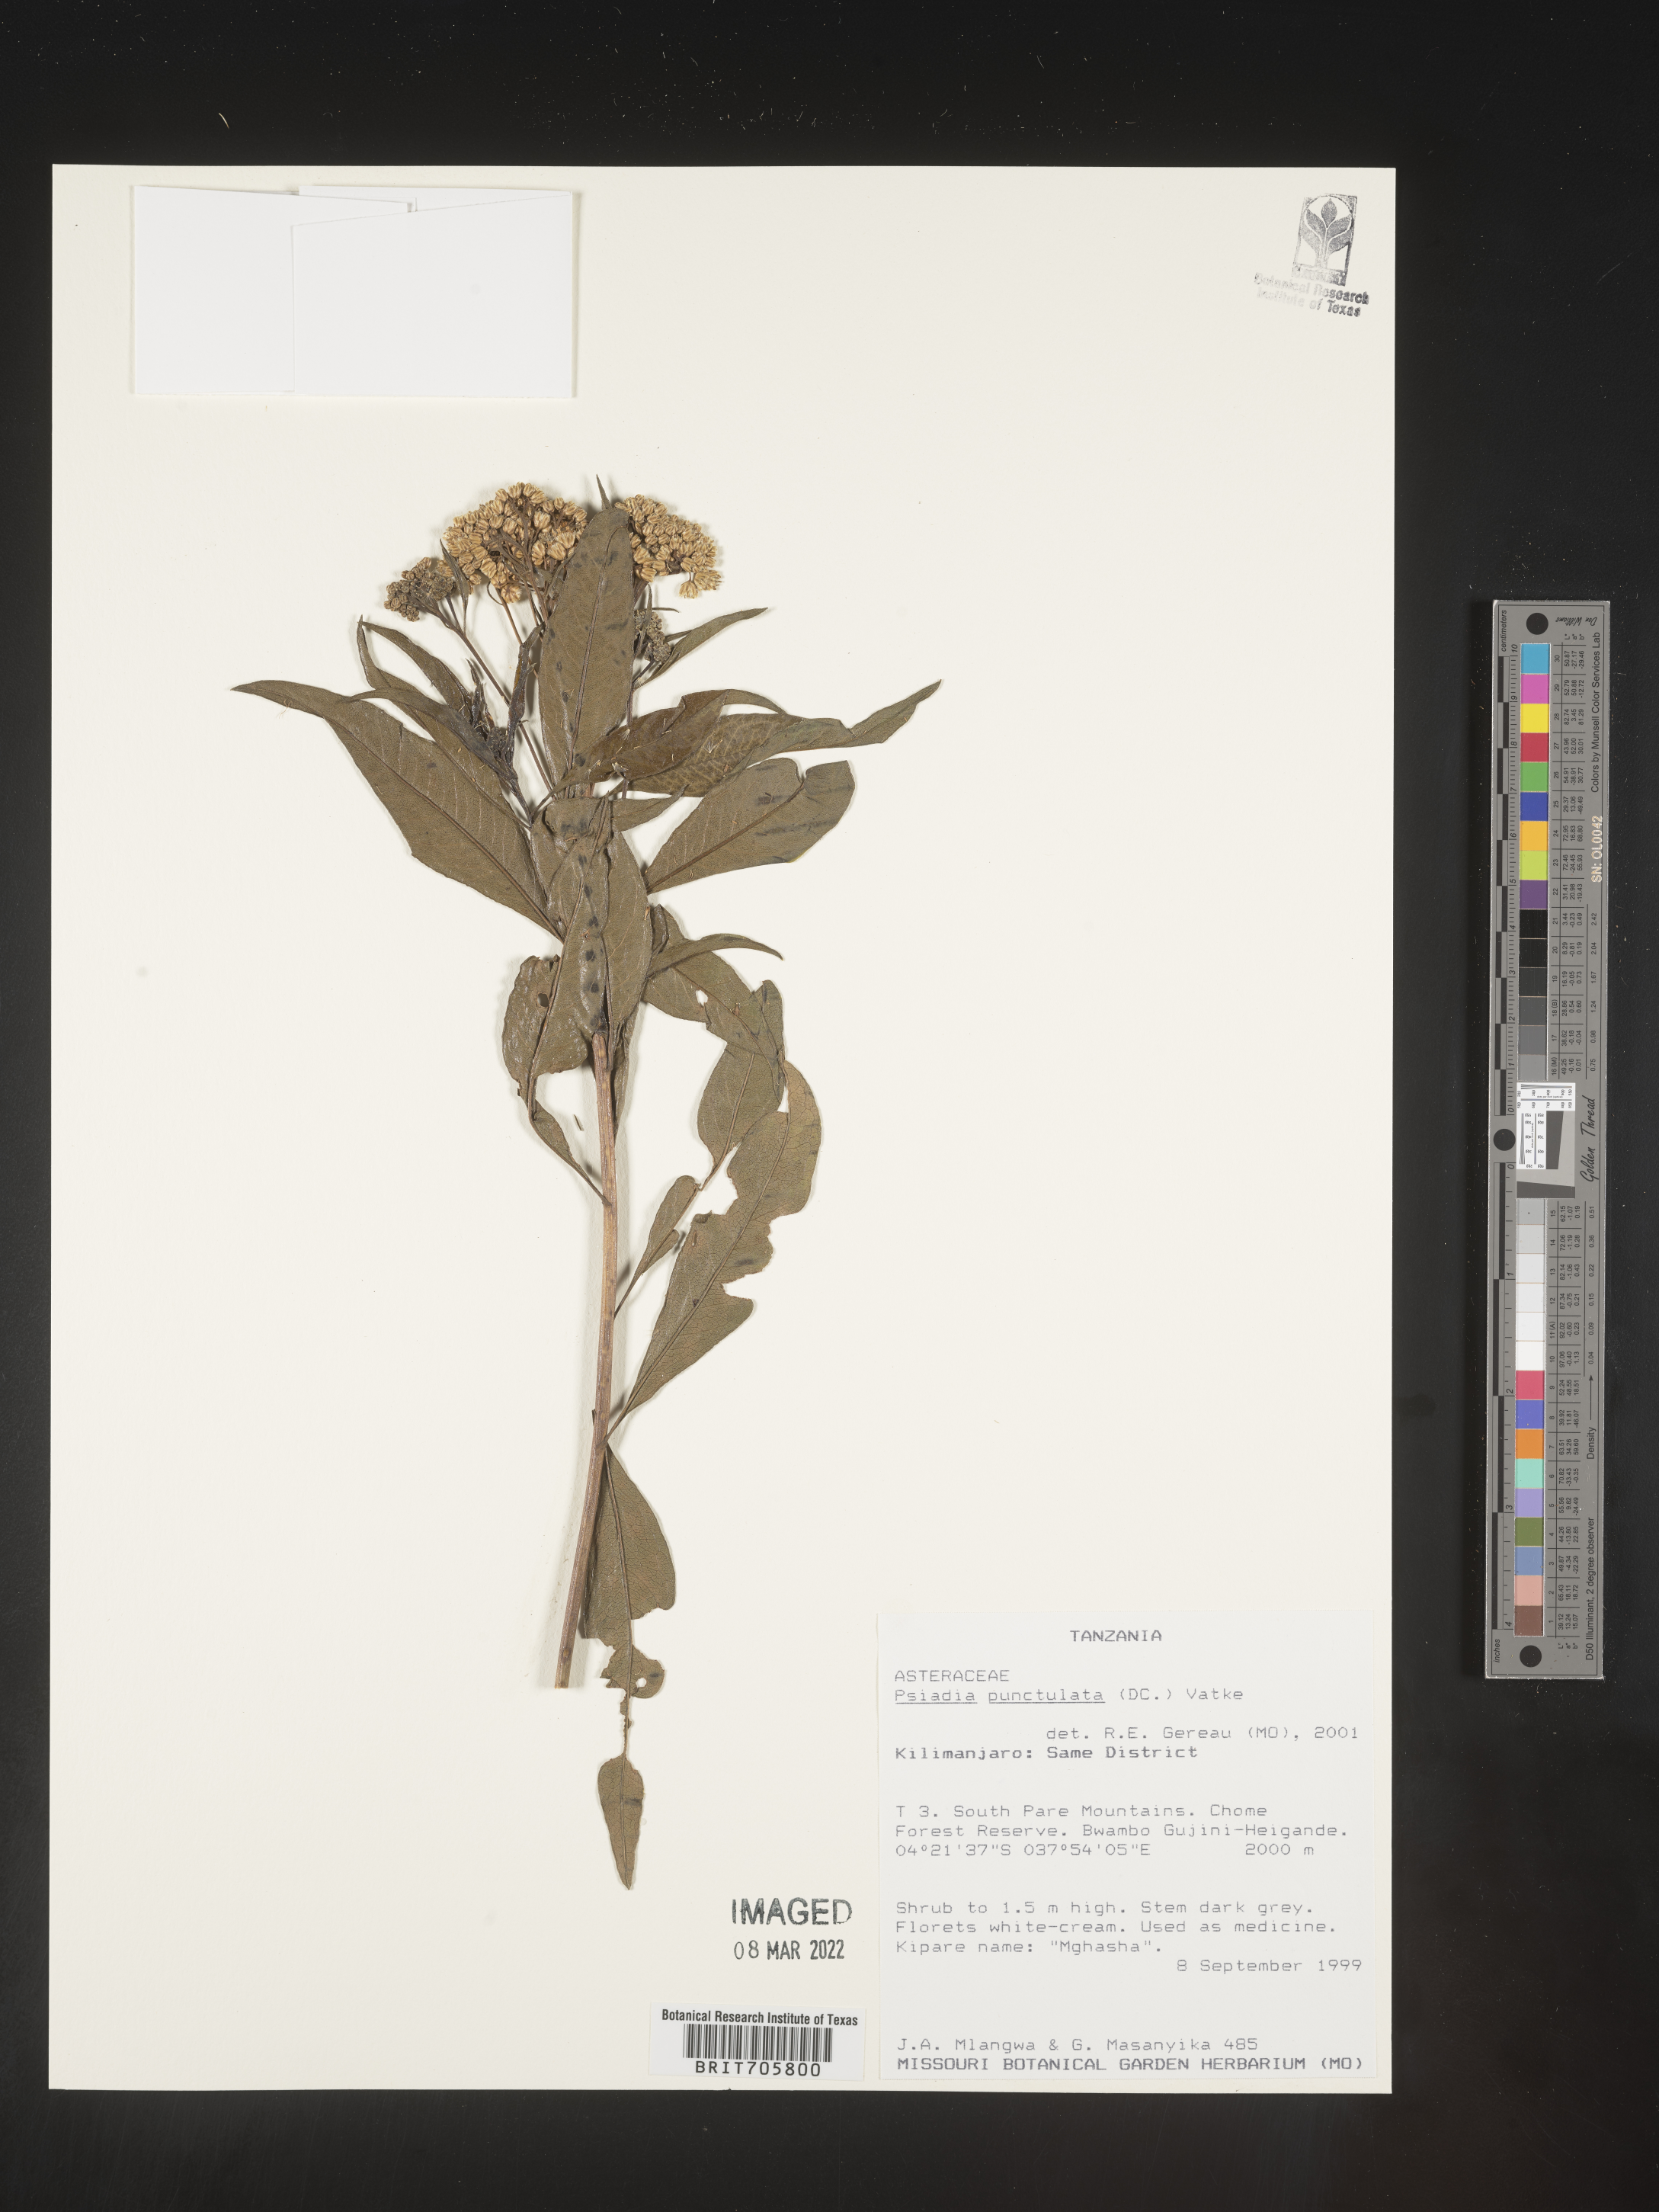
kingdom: Plantae
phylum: Tracheophyta
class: Magnoliopsida
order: Asterales
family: Asteraceae
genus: Psiadia
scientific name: Psiadia
